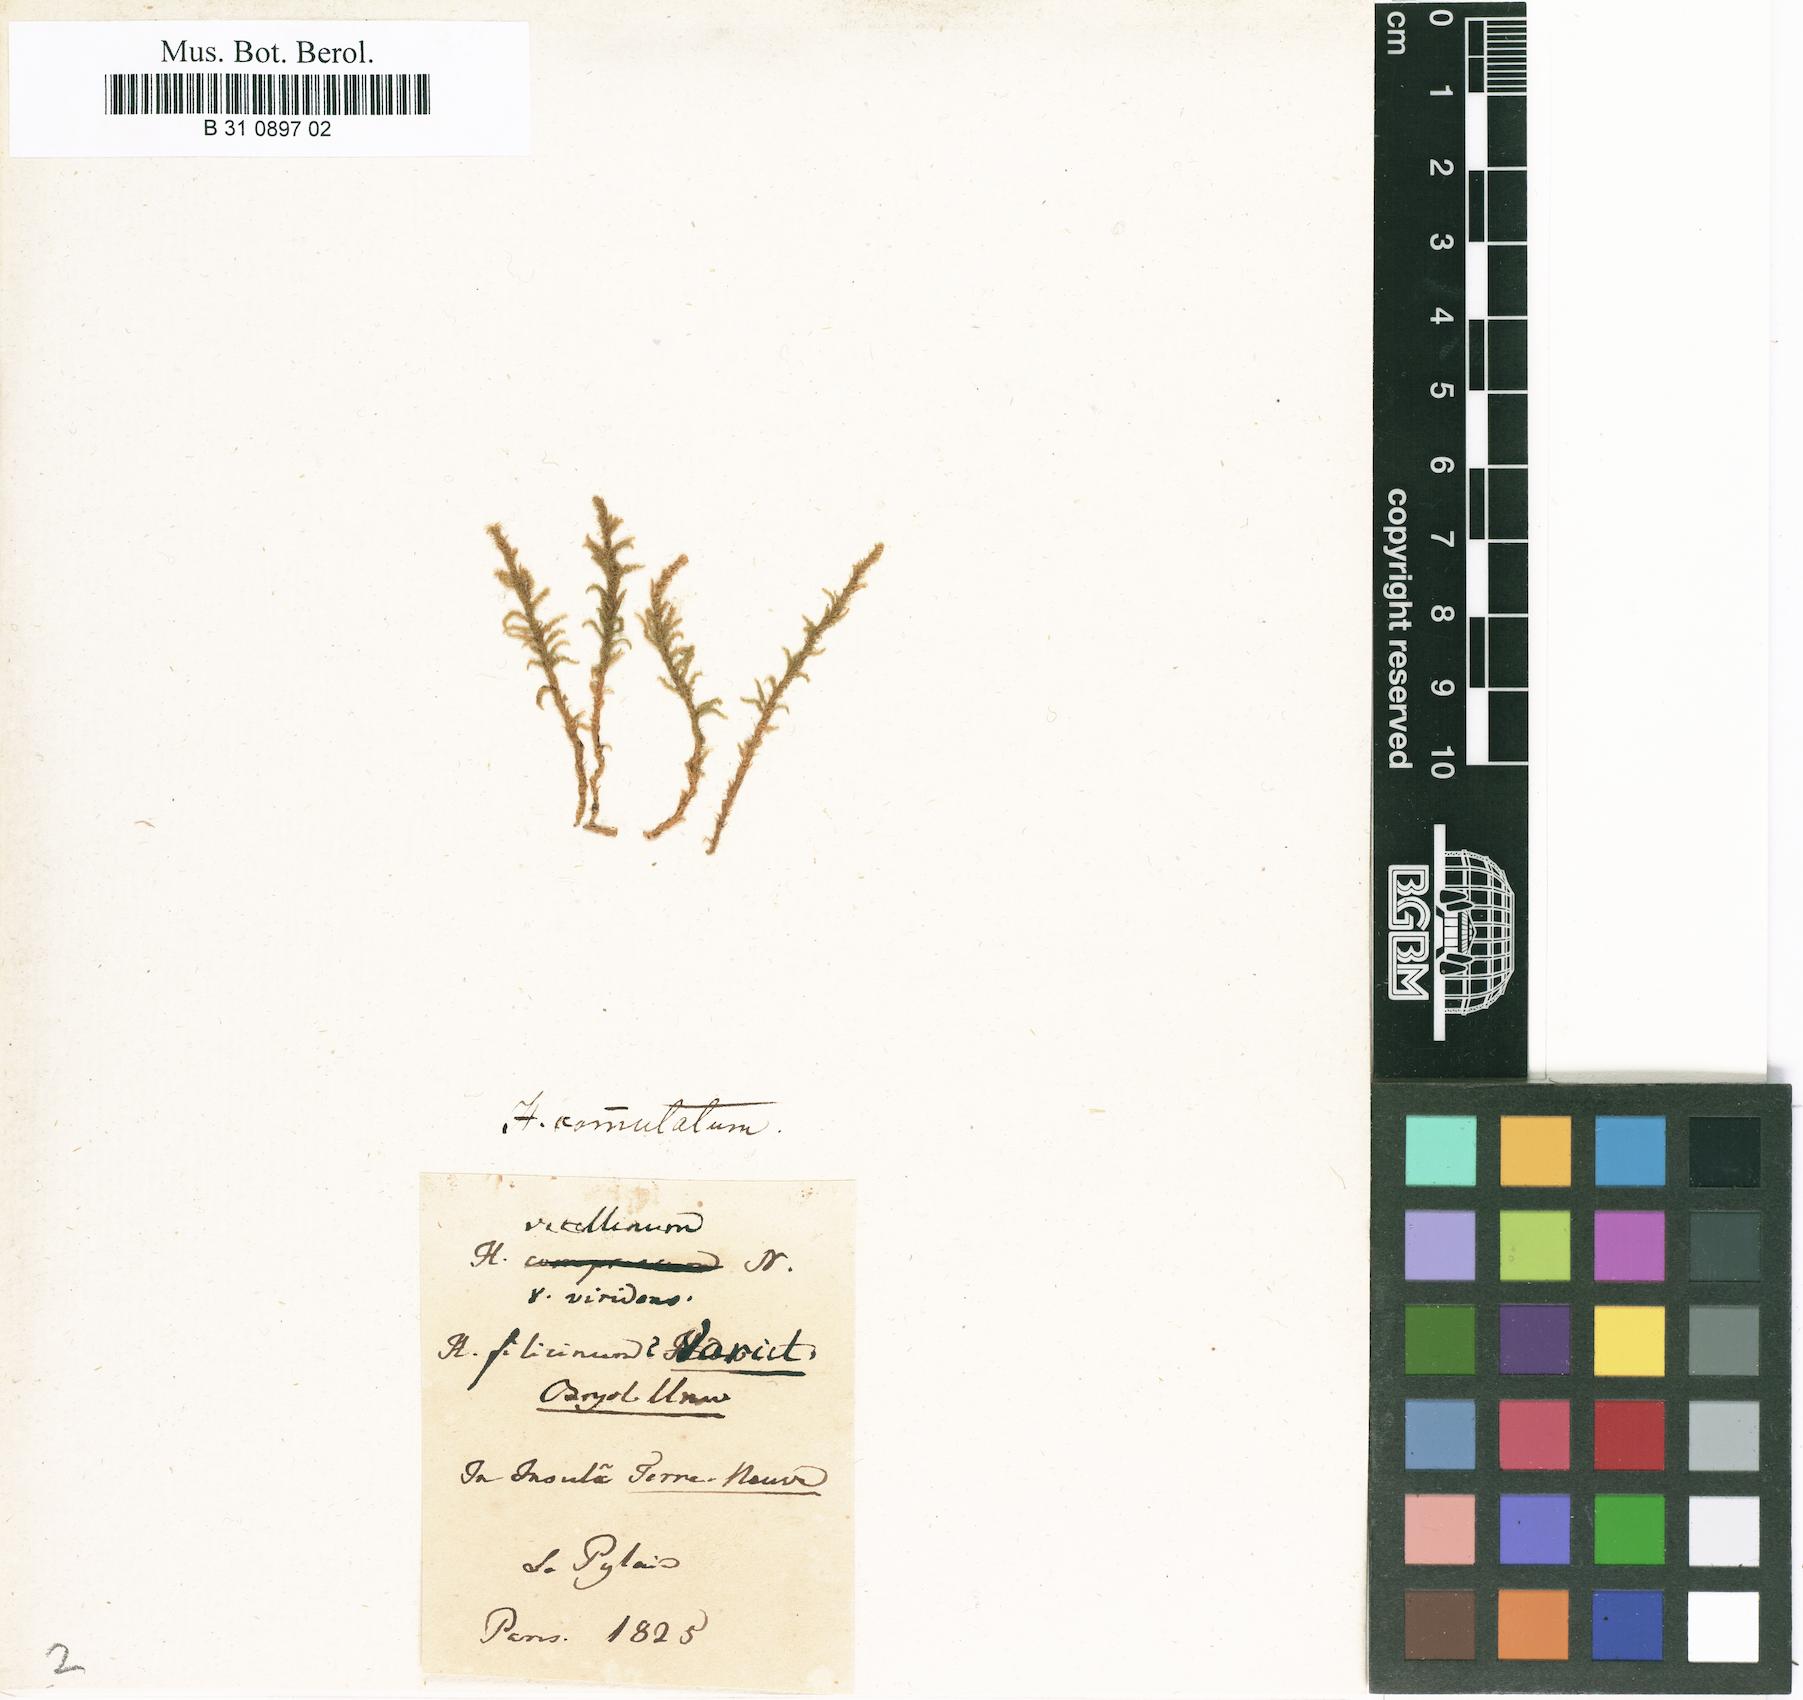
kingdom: Plantae
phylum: Bryophyta
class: Bryopsida
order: Hypnales
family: Amblystegiaceae
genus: Palustriella
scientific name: Palustriella commutata
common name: Curled hook-moss
